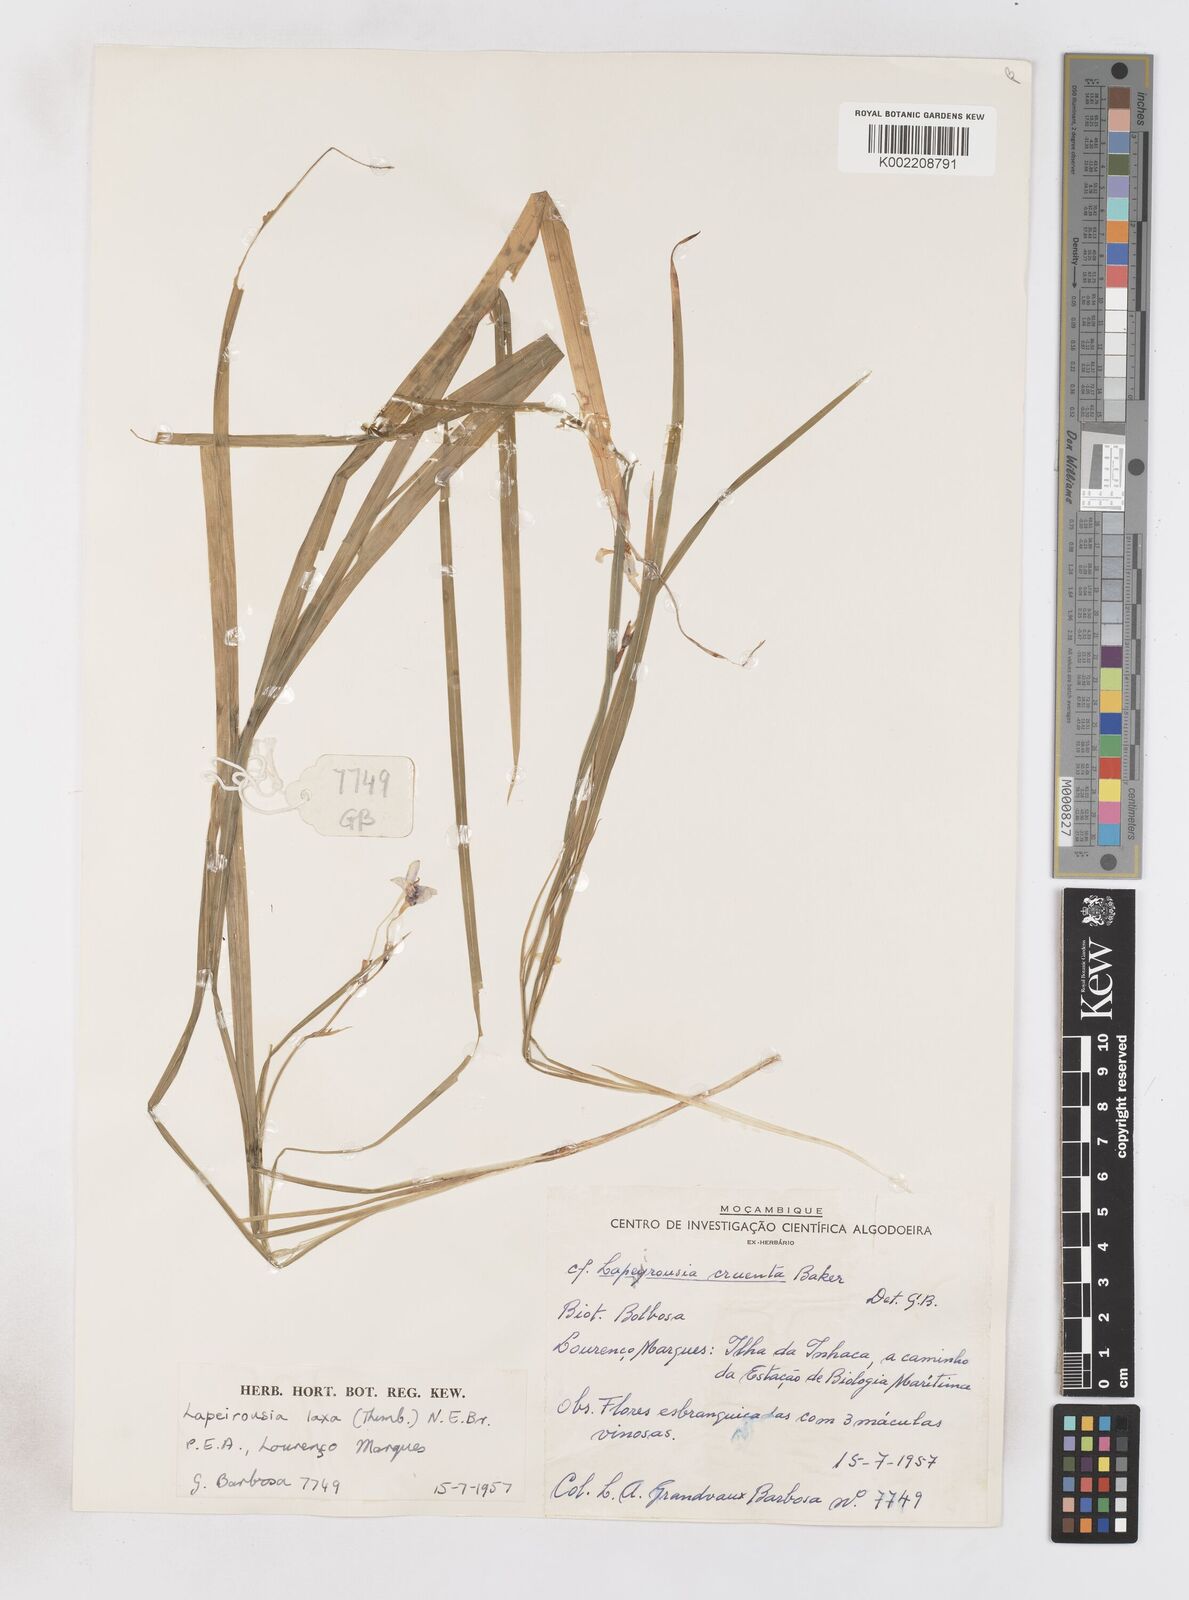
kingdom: Plantae
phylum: Tracheophyta
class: Liliopsida
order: Asparagales
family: Iridaceae
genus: Freesia
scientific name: Freesia laxa
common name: False freesia
